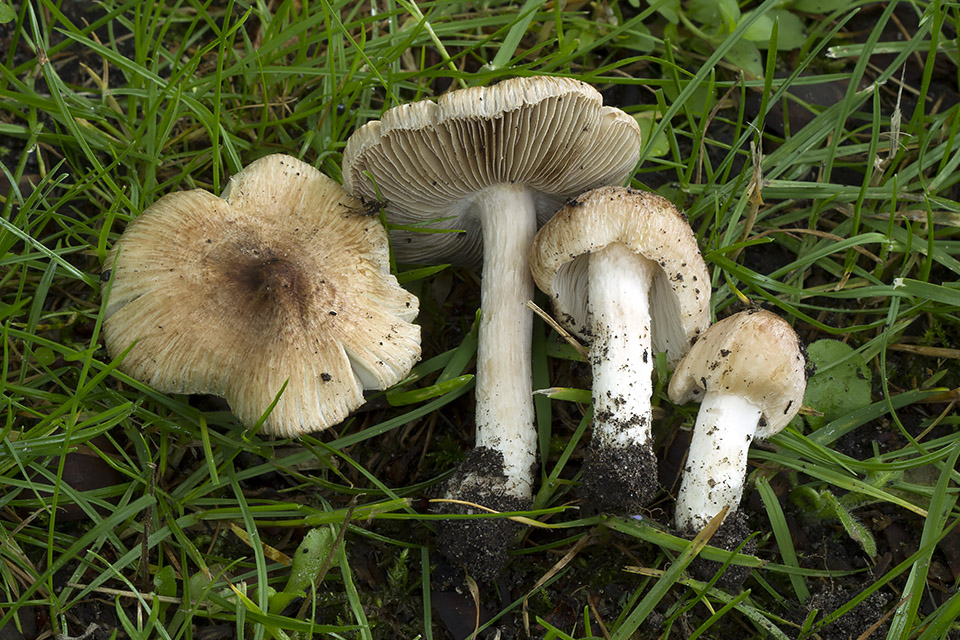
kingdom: Fungi
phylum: Basidiomycota
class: Agaricomycetes
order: Agaricales
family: Inocybaceae
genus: Inosperma
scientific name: Inosperma rhodiolum
